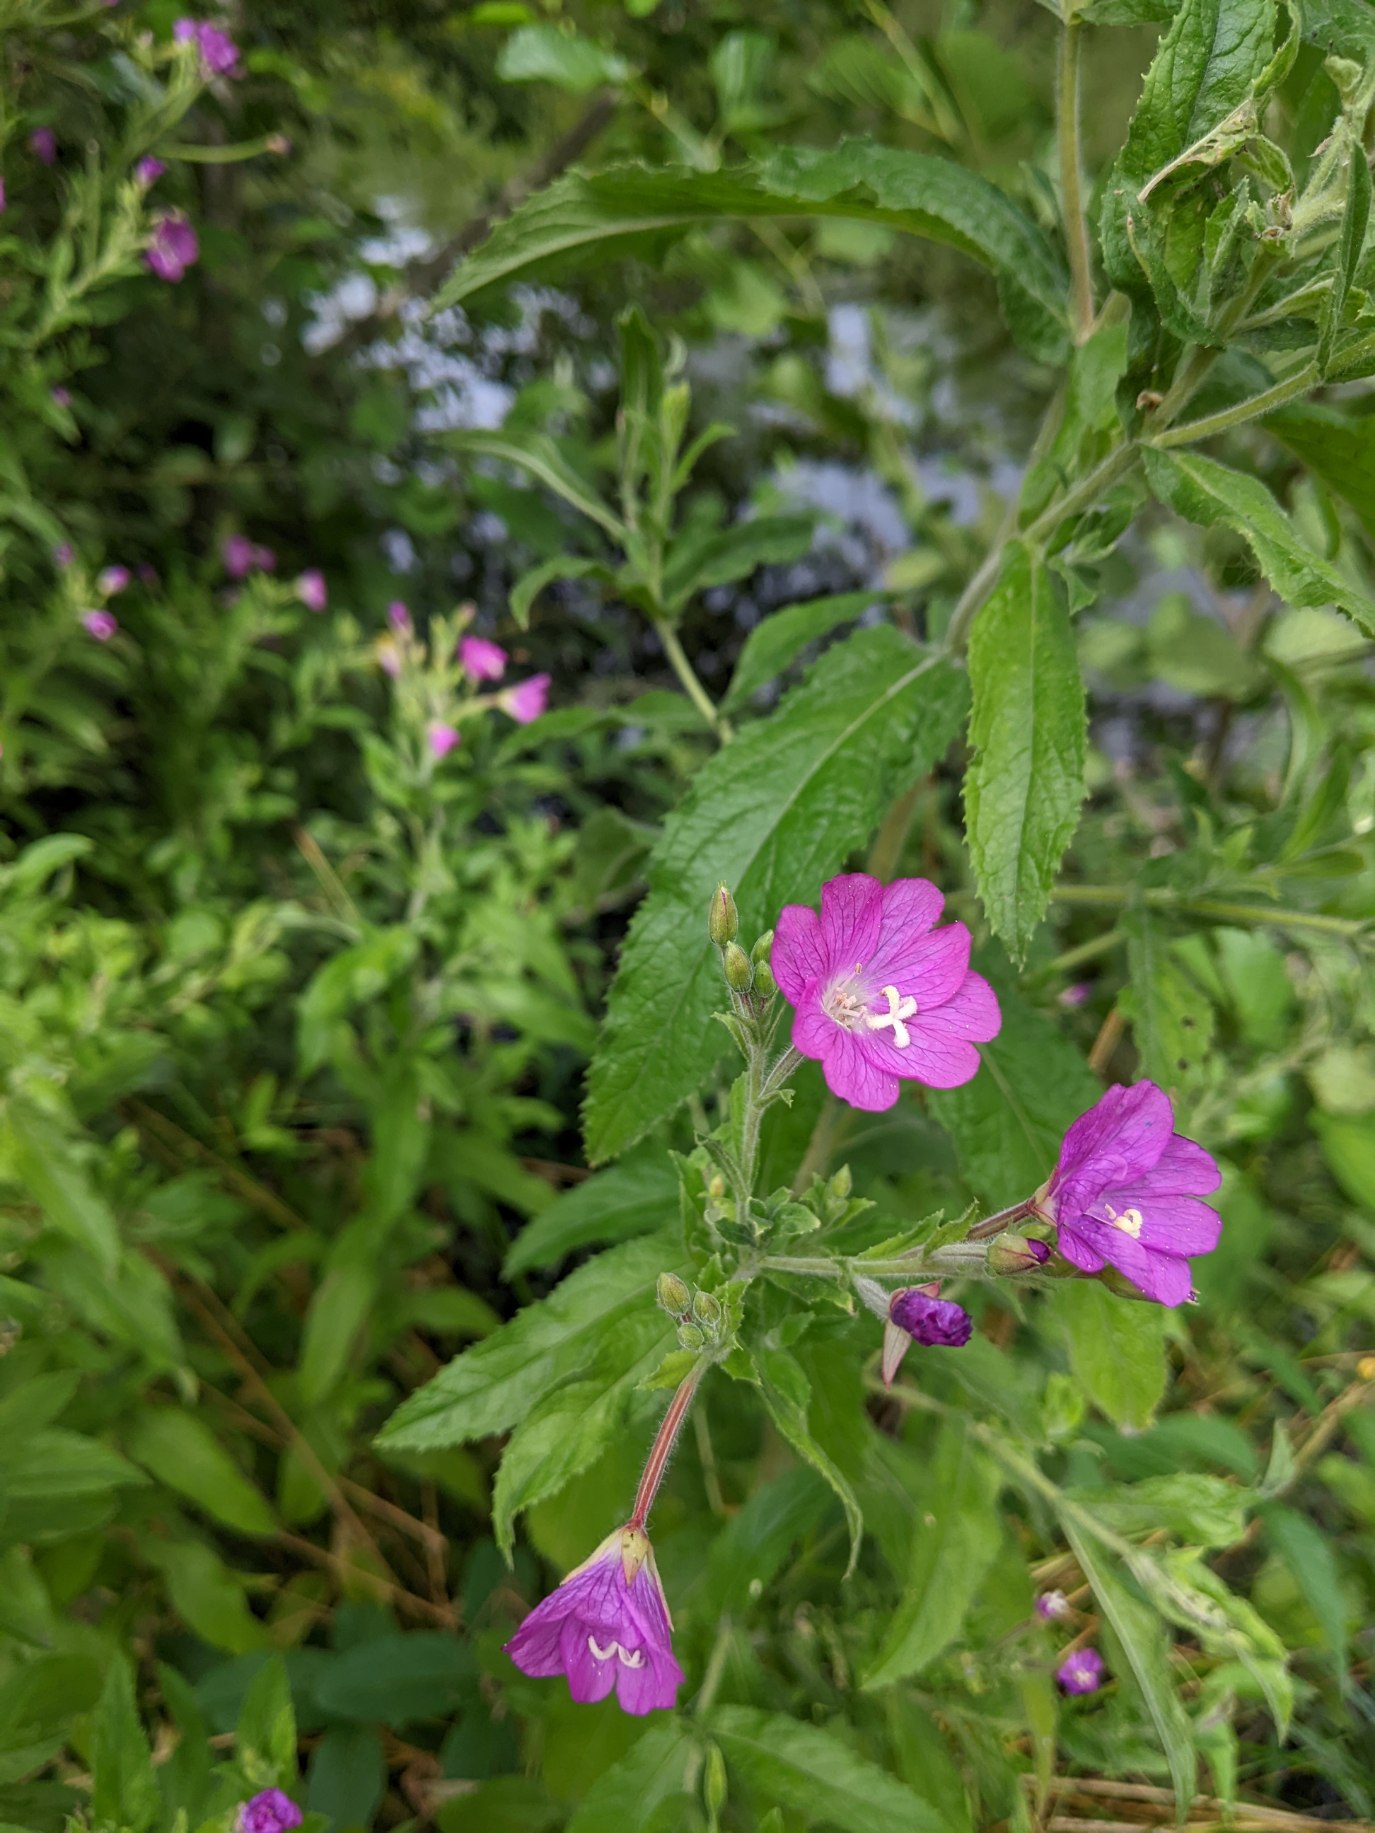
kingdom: Plantae
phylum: Tracheophyta
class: Magnoliopsida
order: Myrtales
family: Onagraceae
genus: Epilobium
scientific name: Epilobium hirsutum
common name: Lådden dueurt
